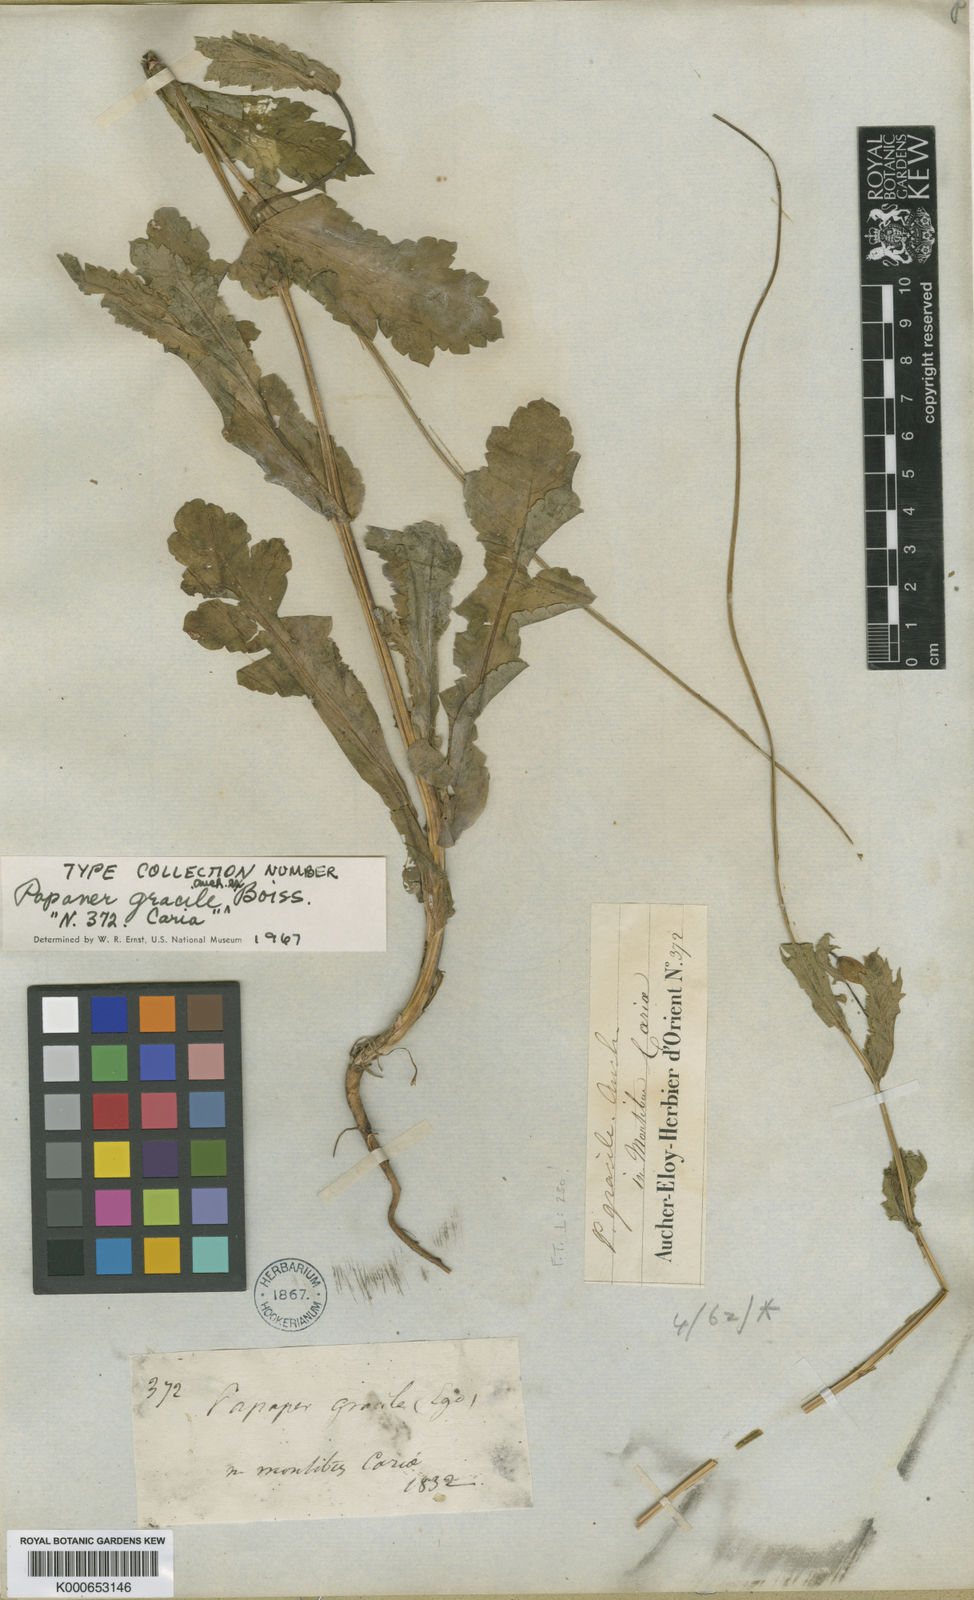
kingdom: Plantae
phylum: Tracheophyta
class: Magnoliopsida
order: Ranunculales
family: Papaveraceae
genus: Papaver
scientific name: Papaver gracile
